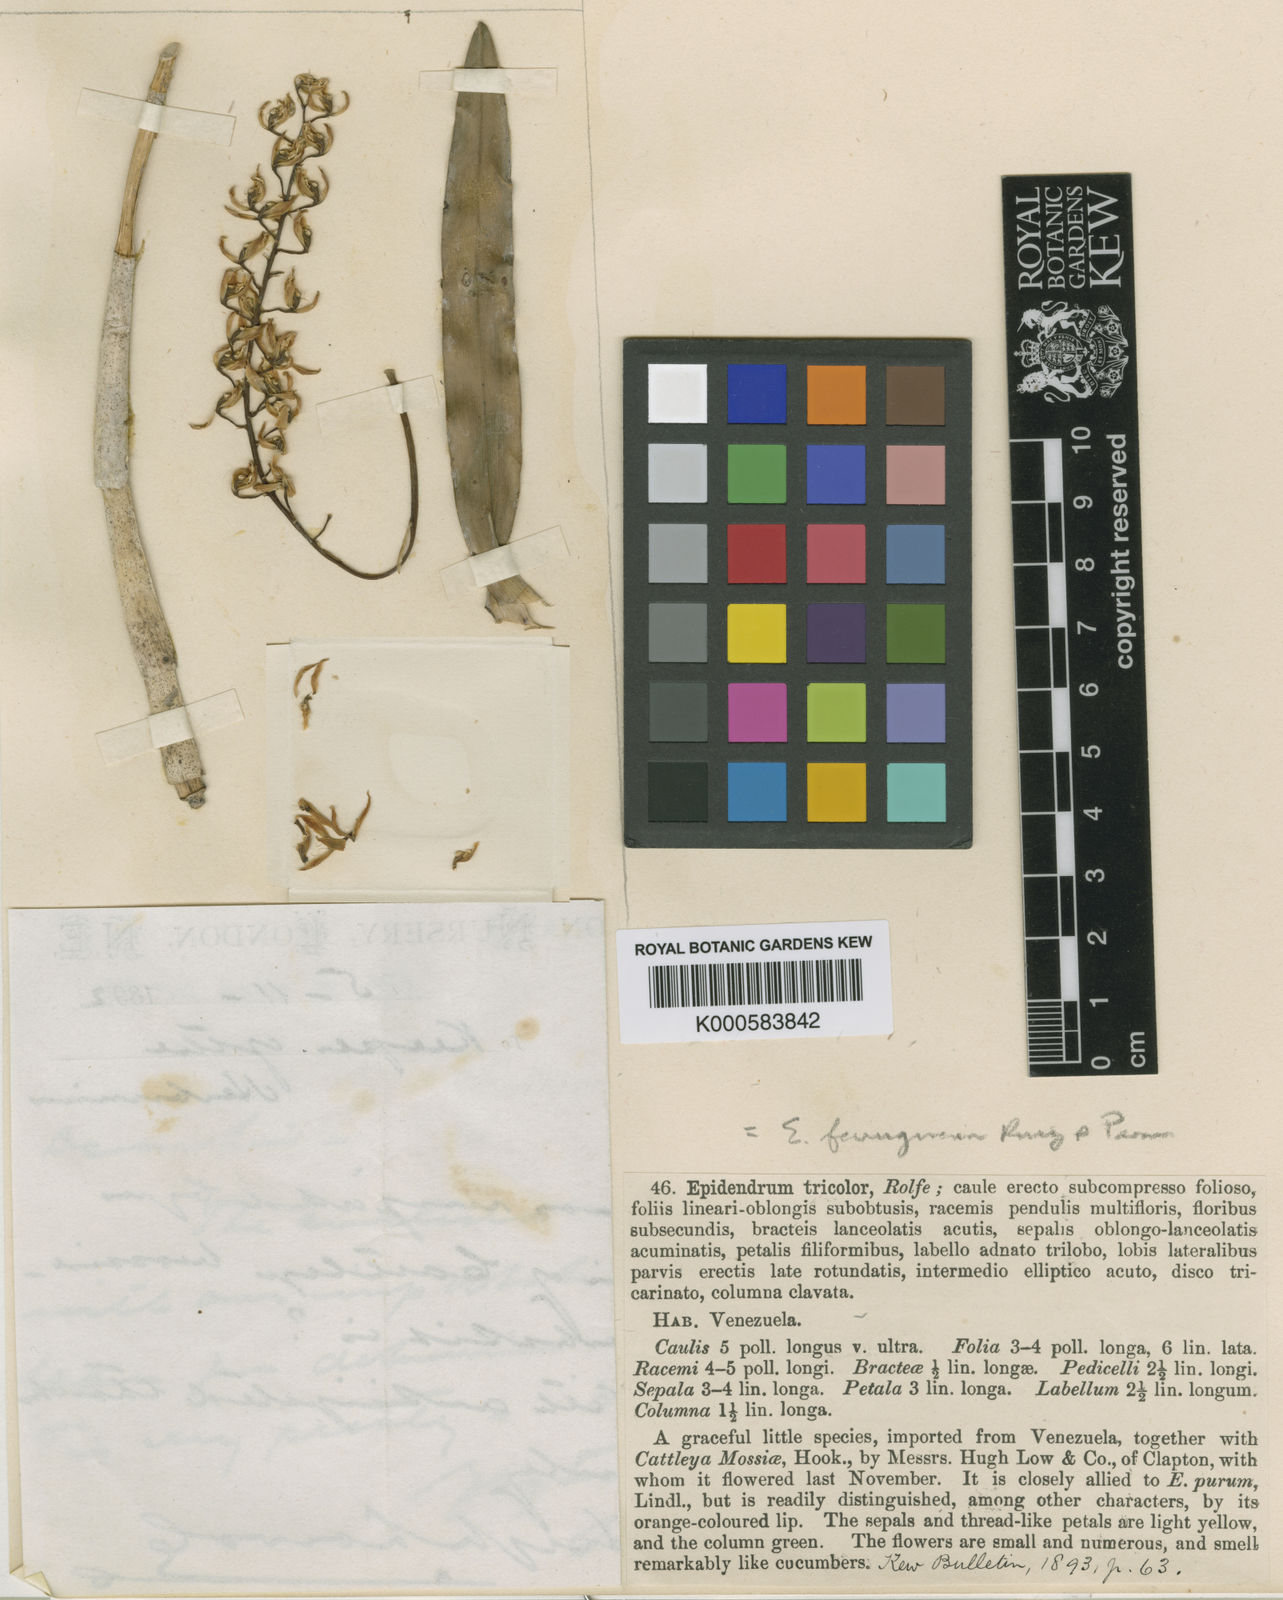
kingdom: Plantae
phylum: Tracheophyta
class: Liliopsida
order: Asparagales
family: Orchidaceae
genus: Epidendrum
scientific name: Epidendrum ferrugineum
